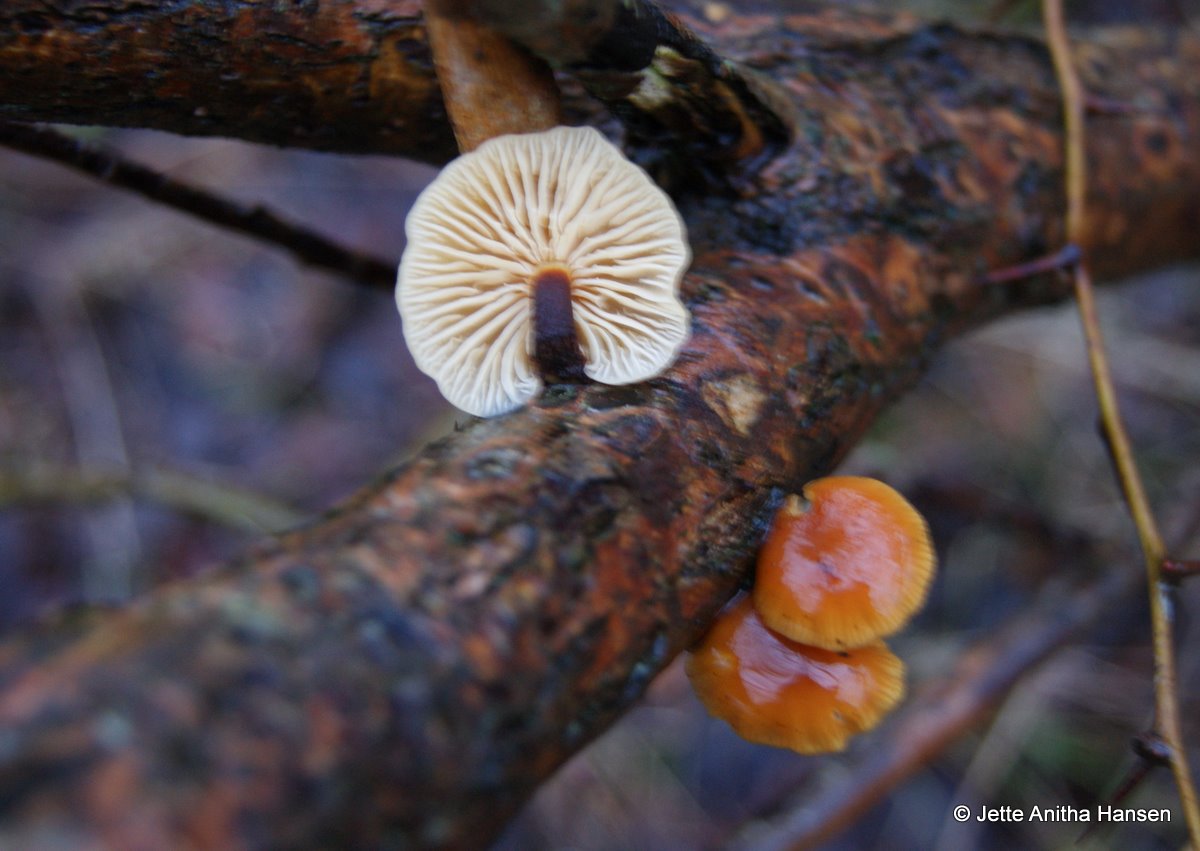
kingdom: Fungi
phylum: Basidiomycota
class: Agaricomycetes
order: Agaricales
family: Physalacriaceae
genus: Flammulina
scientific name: Flammulina velutipes
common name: gul fløjlsfod
